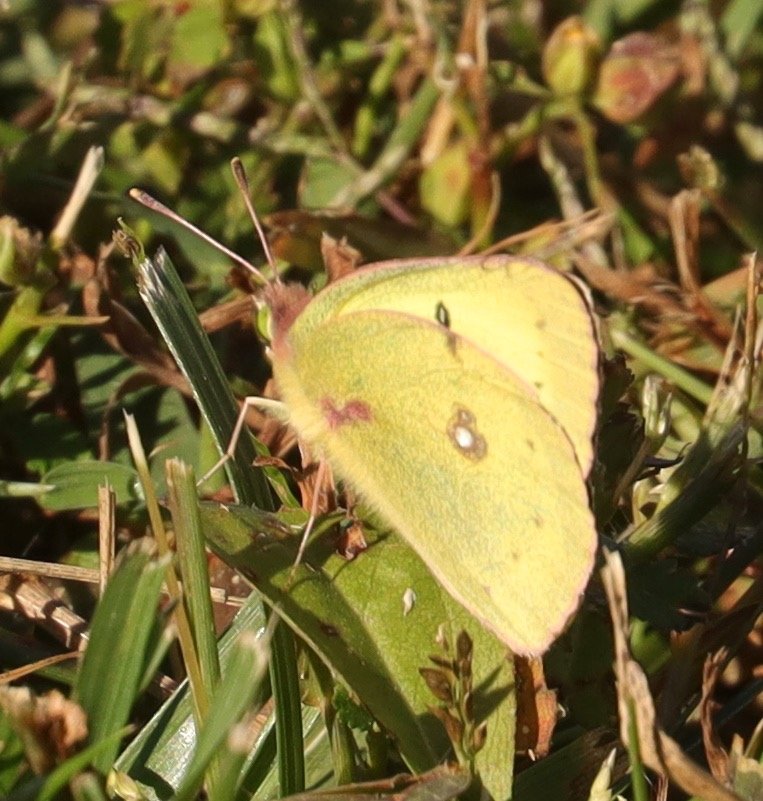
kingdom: Animalia
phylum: Arthropoda
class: Insecta
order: Lepidoptera
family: Pieridae
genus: Colias
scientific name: Colias philodice
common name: Clouded Sulphur
